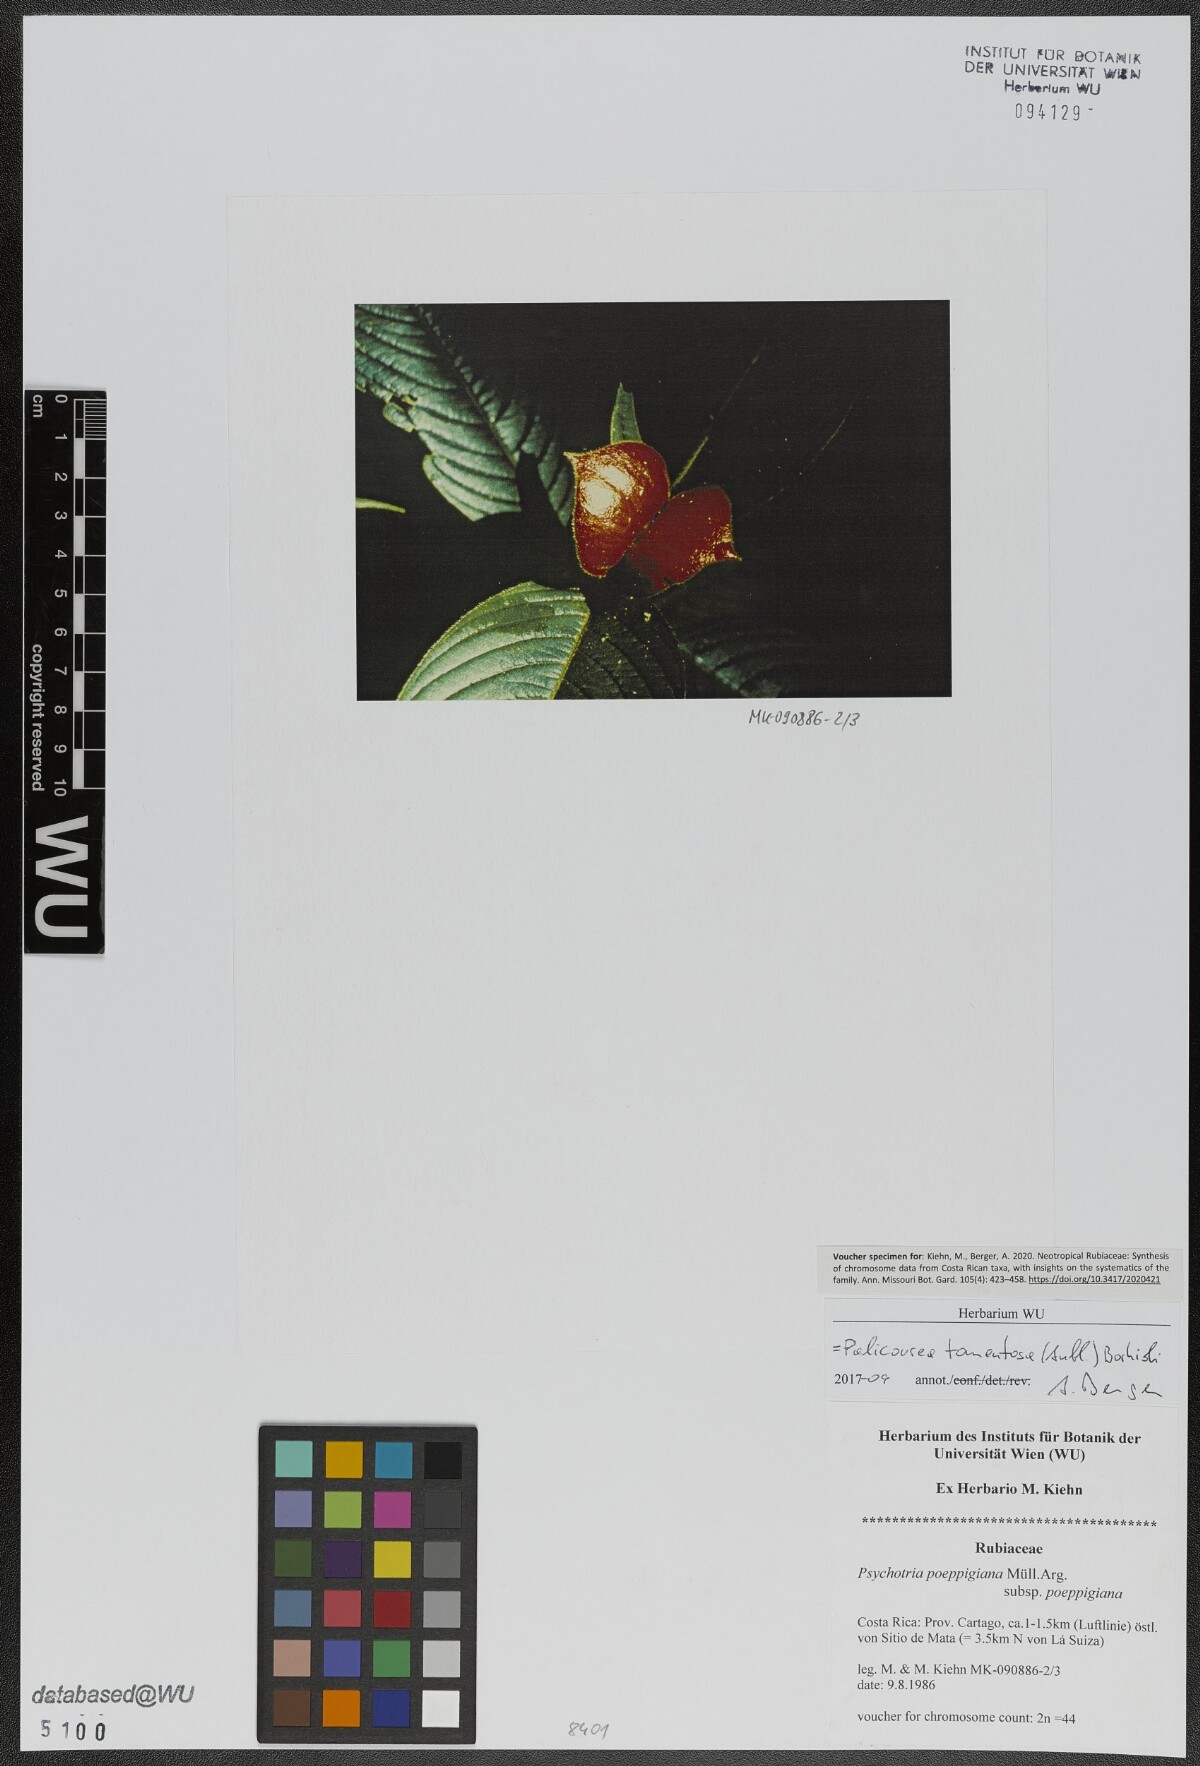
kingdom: Plantae
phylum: Tracheophyta
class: Magnoliopsida
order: Gentianales
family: Rubiaceae
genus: Palicourea
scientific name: Palicourea tomentosa
